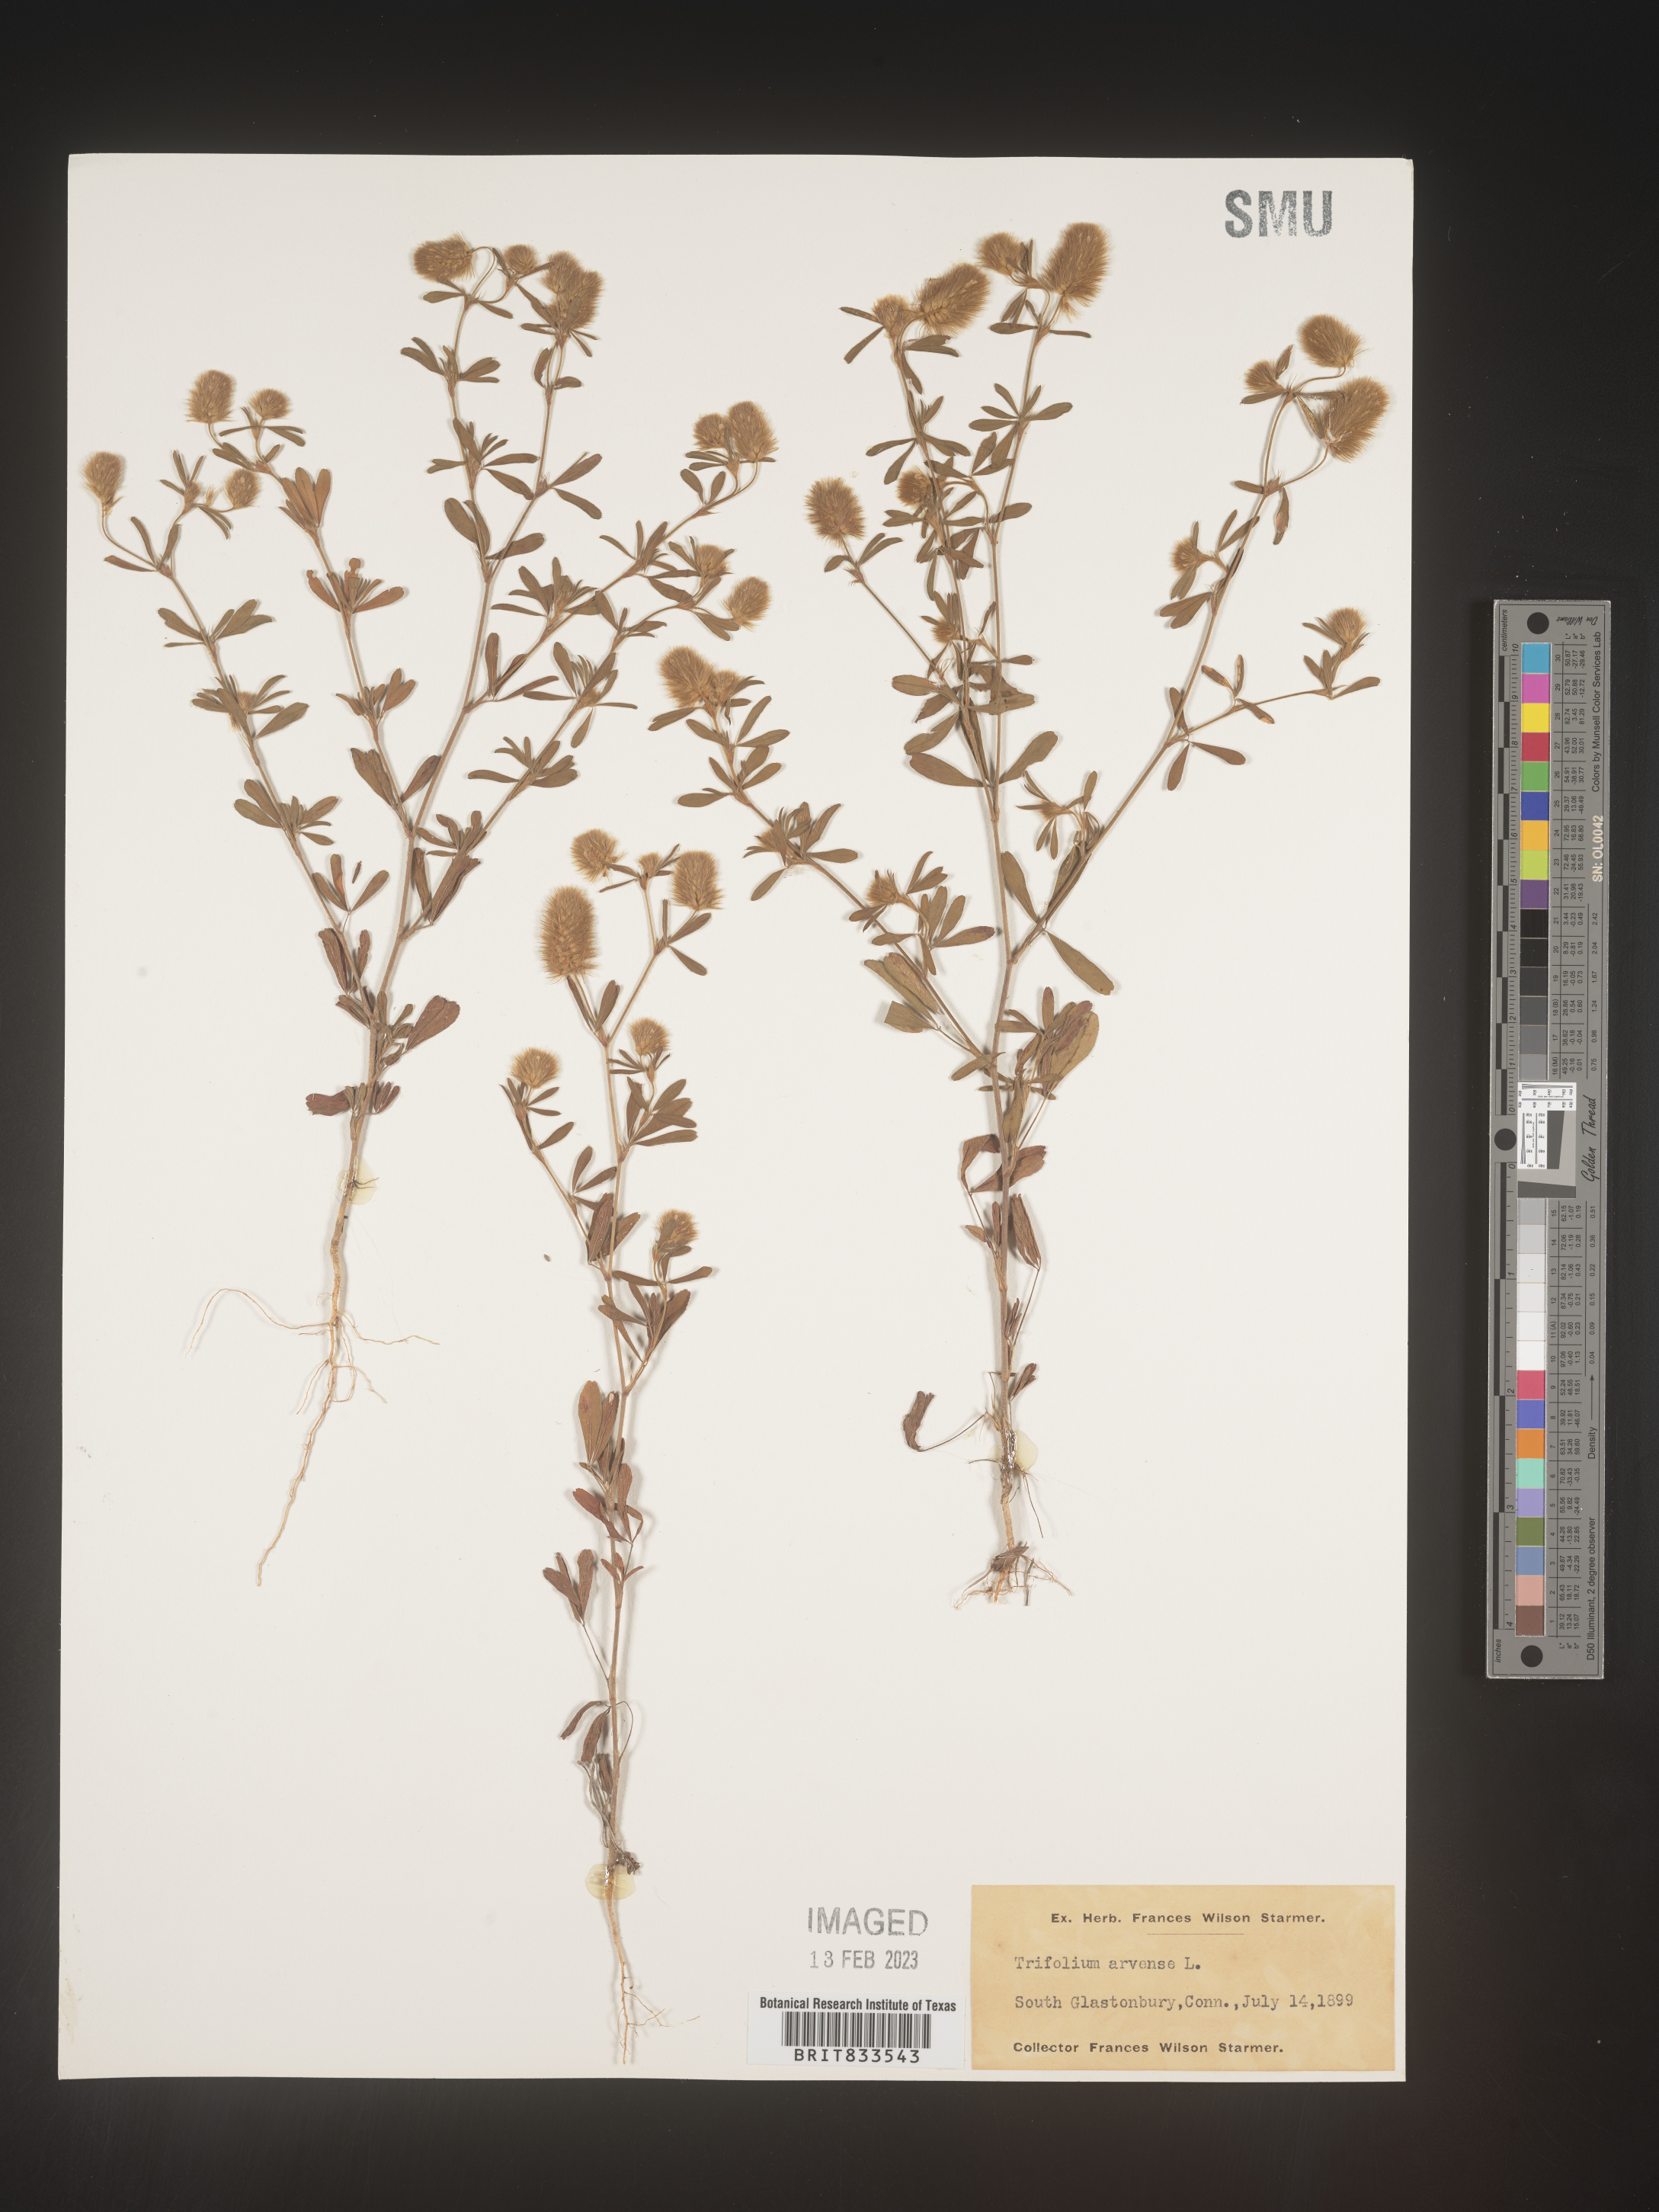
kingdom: Plantae
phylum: Tracheophyta
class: Magnoliopsida
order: Fabales
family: Fabaceae
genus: Trifolium
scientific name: Trifolium arvense
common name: Hare's-foot clover
